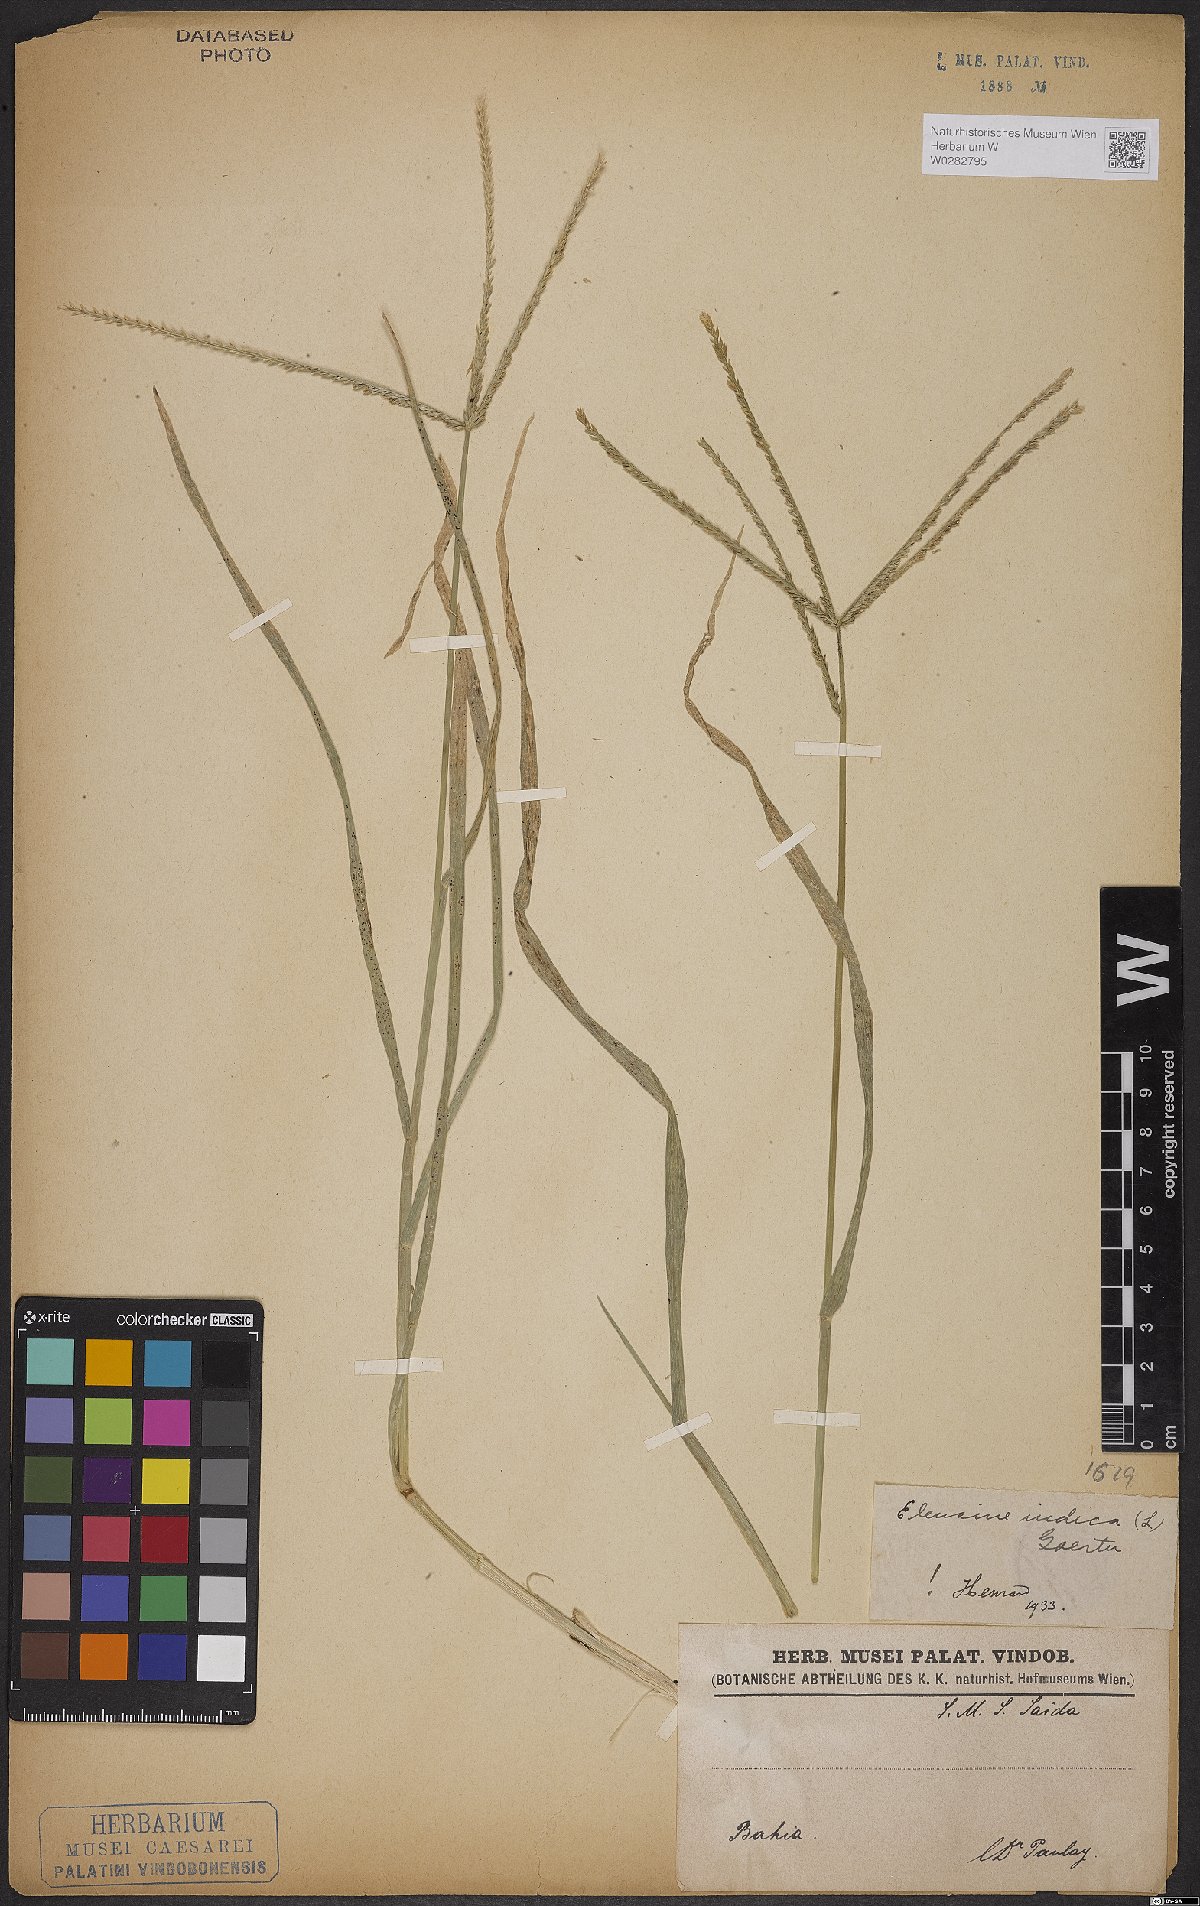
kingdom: Plantae
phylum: Tracheophyta
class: Liliopsida
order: Poales
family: Poaceae
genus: Eleusine
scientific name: Eleusine indica
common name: Yard-grass
